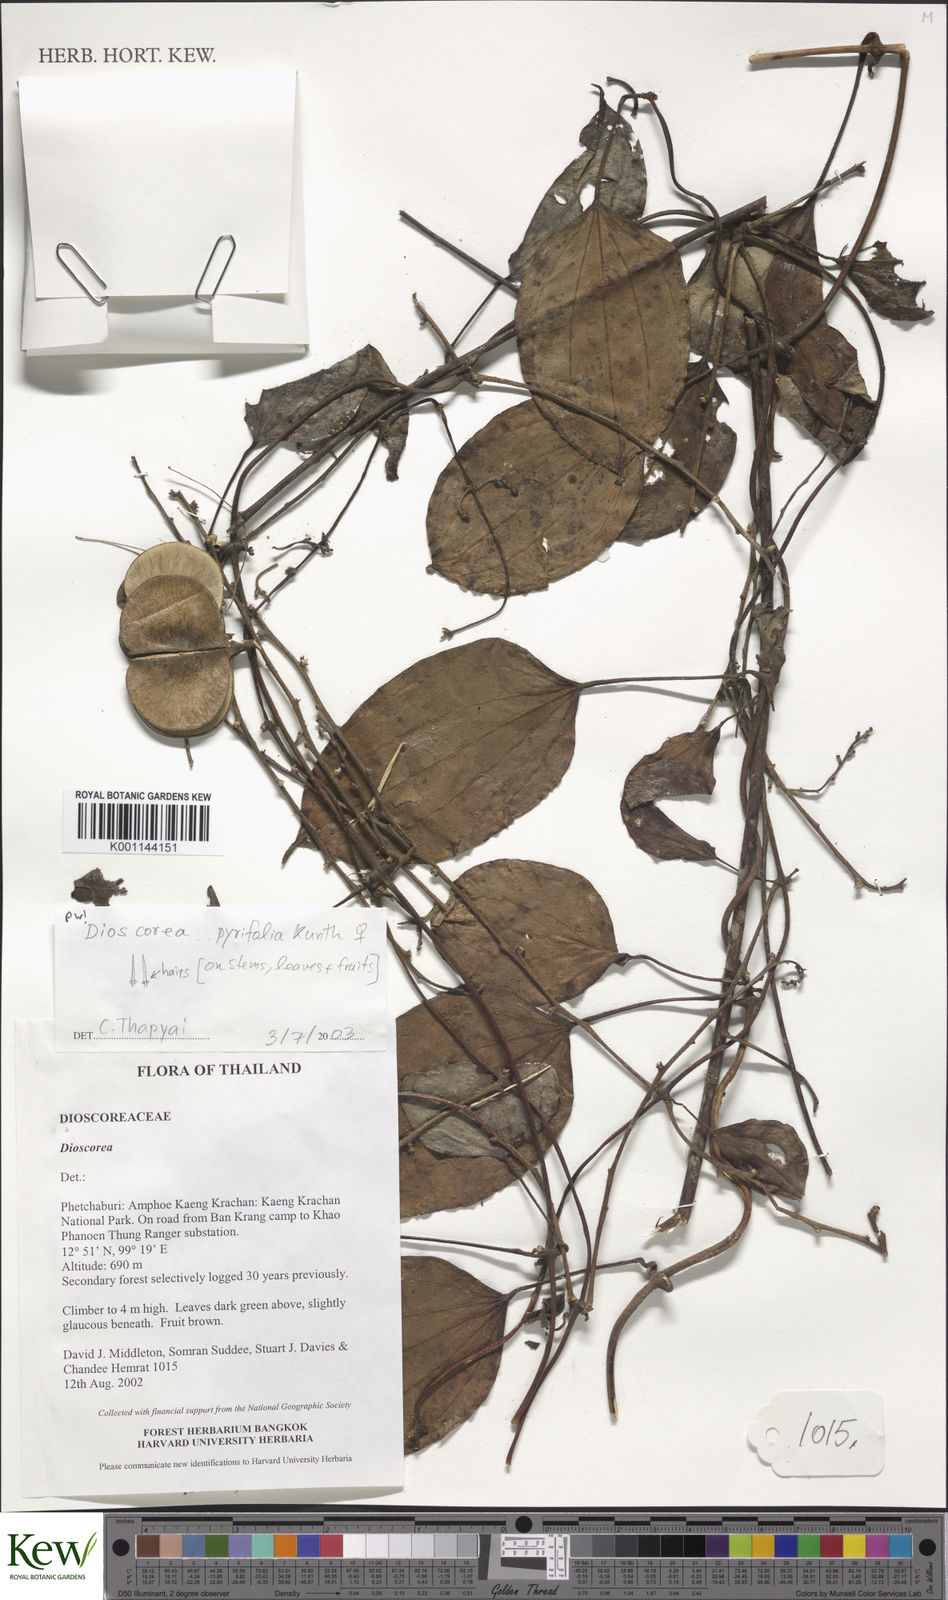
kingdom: Plantae
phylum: Tracheophyta
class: Liliopsida
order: Dioscoreales
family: Dioscoreaceae
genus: Dioscorea
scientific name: Dioscorea pyrifolia
